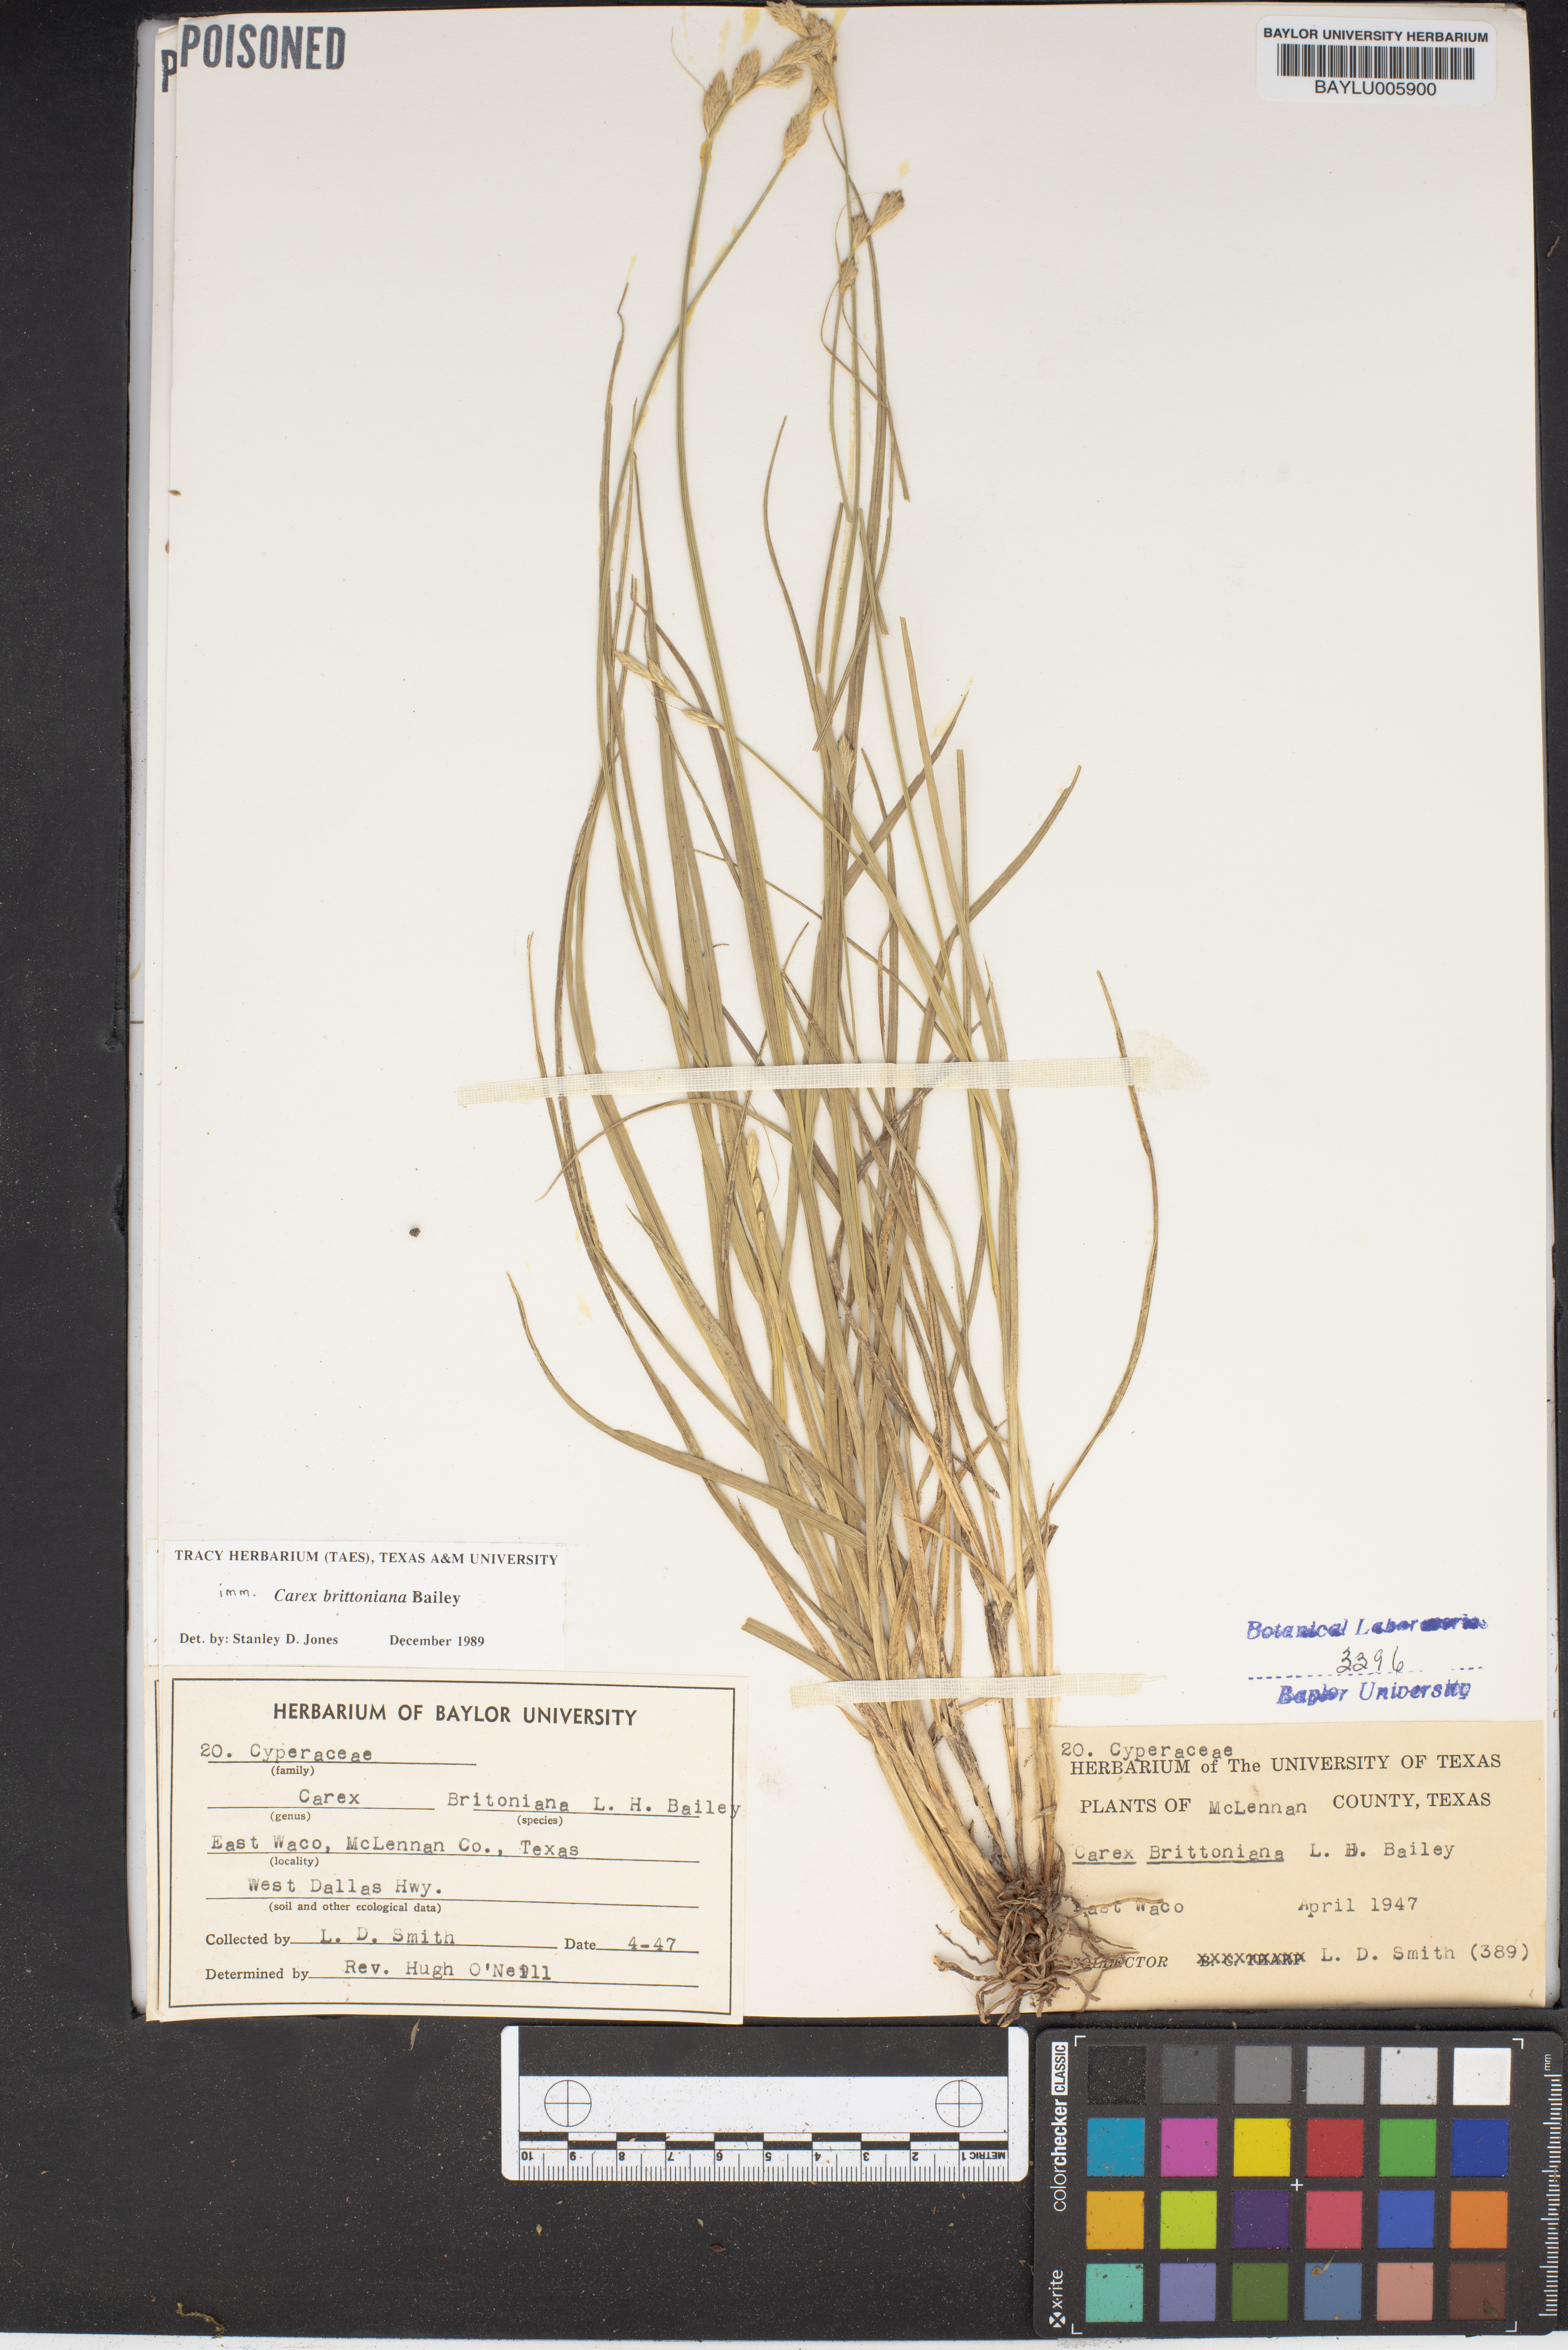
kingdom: Plantae
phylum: Tracheophyta
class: Liliopsida
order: Poales
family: Cyperaceae
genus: Carex
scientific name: Carex tetrastachya
